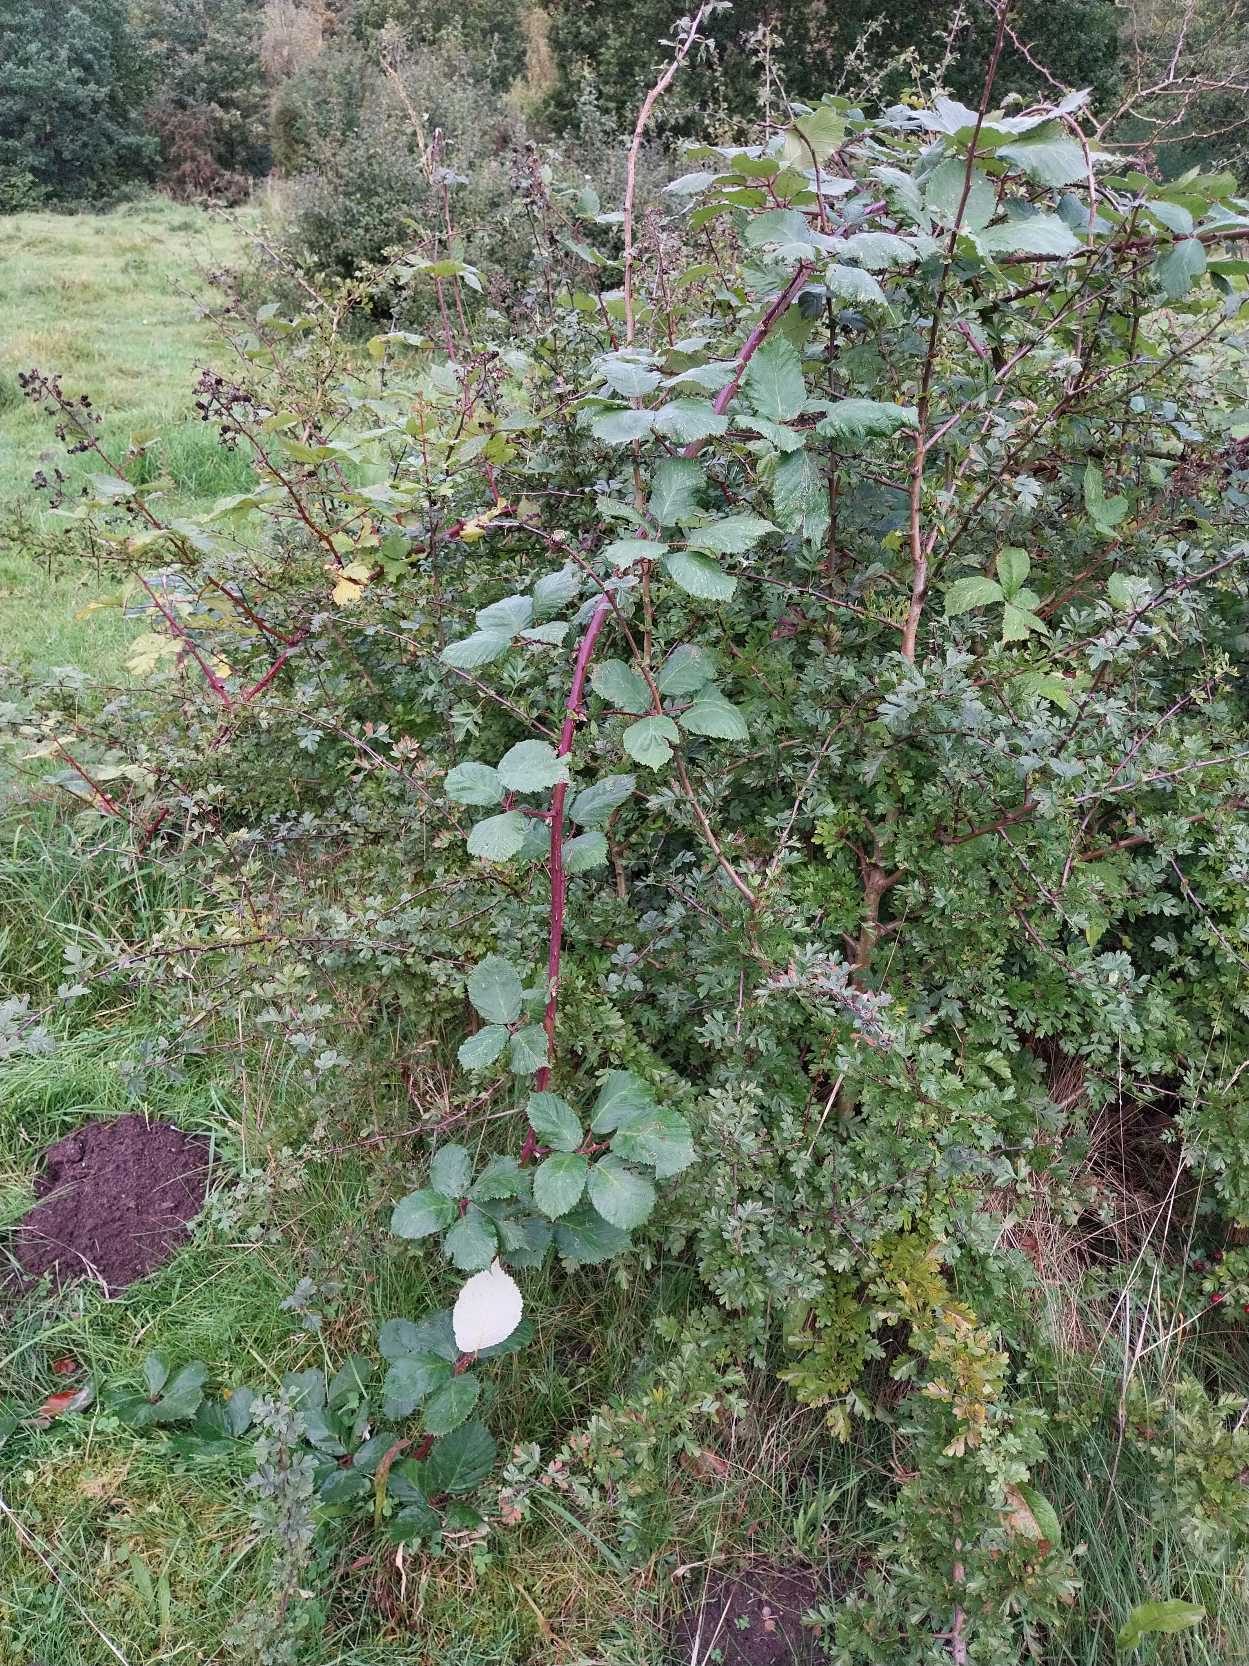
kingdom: Plantae
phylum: Tracheophyta
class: Magnoliopsida
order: Rosales
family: Rosaceae
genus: Rubus
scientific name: Rubus armeniacus
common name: Armensk brombær
